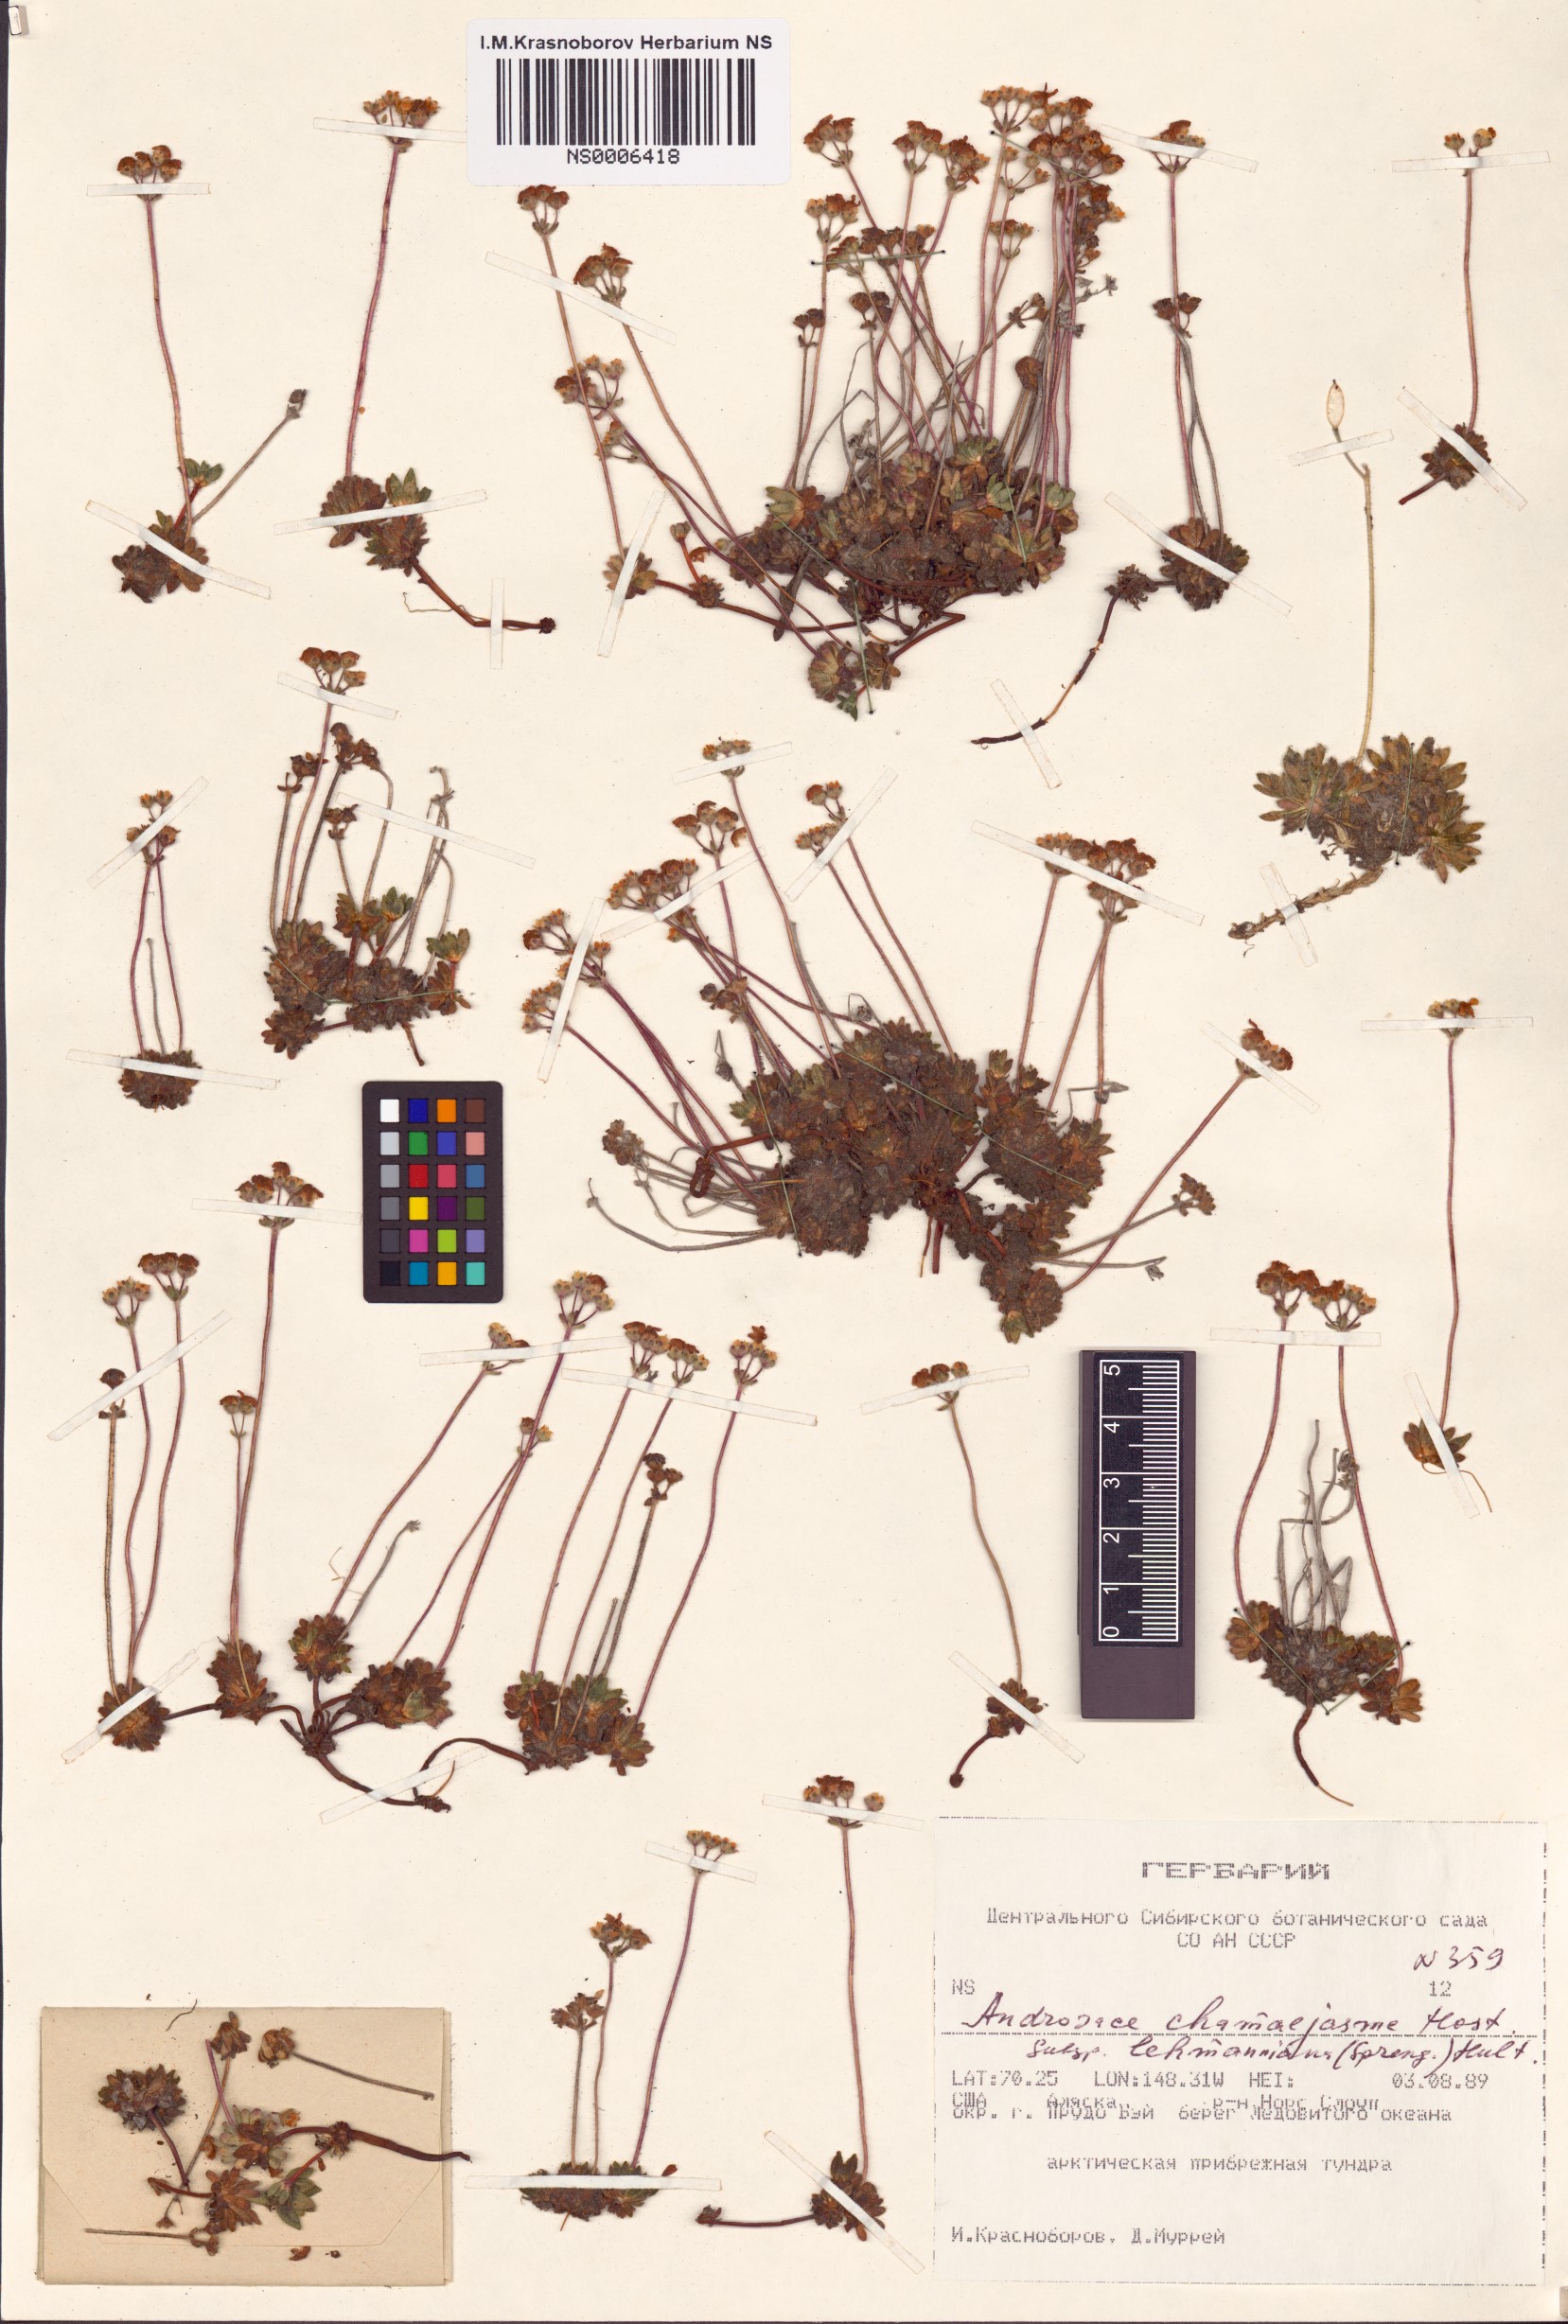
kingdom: Plantae
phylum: Tracheophyta
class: Magnoliopsida
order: Ericales
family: Primulaceae
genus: Androsace
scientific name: Androsace chamaejasme
